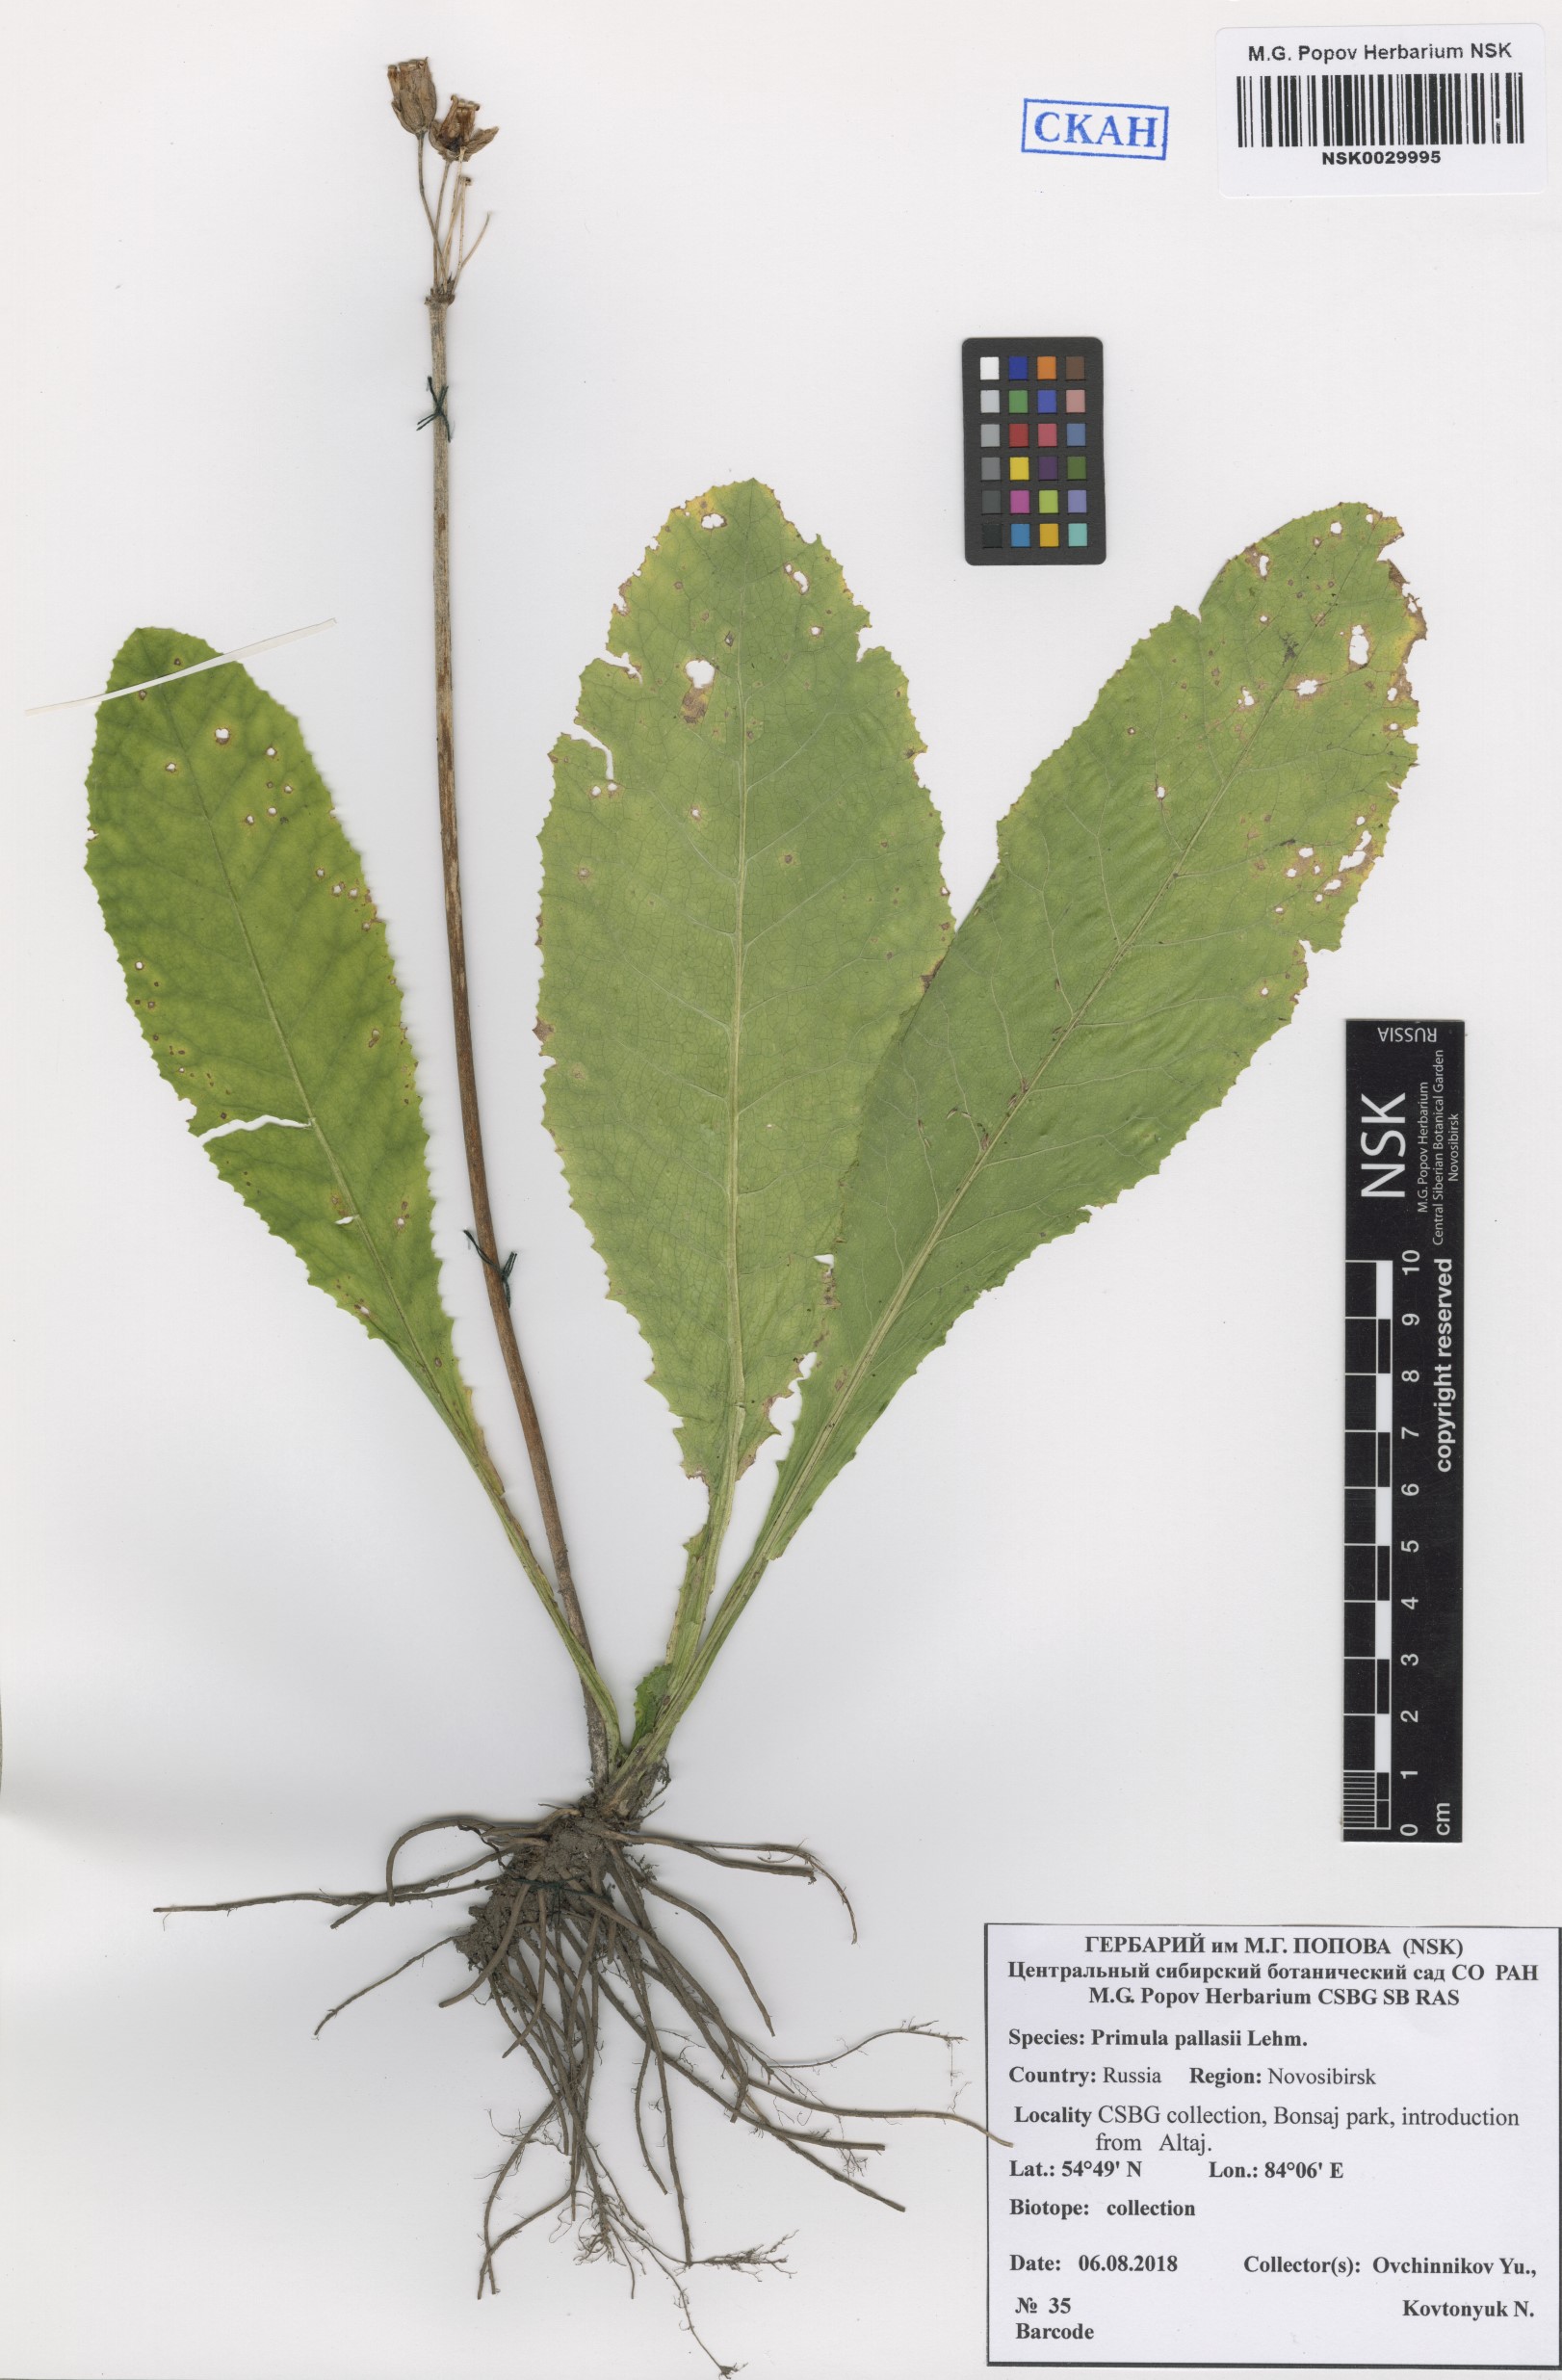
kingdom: Plantae
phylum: Tracheophyta
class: Magnoliopsida
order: Ericales
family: Primulaceae
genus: Primula
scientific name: Primula elatior
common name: Oxlip
